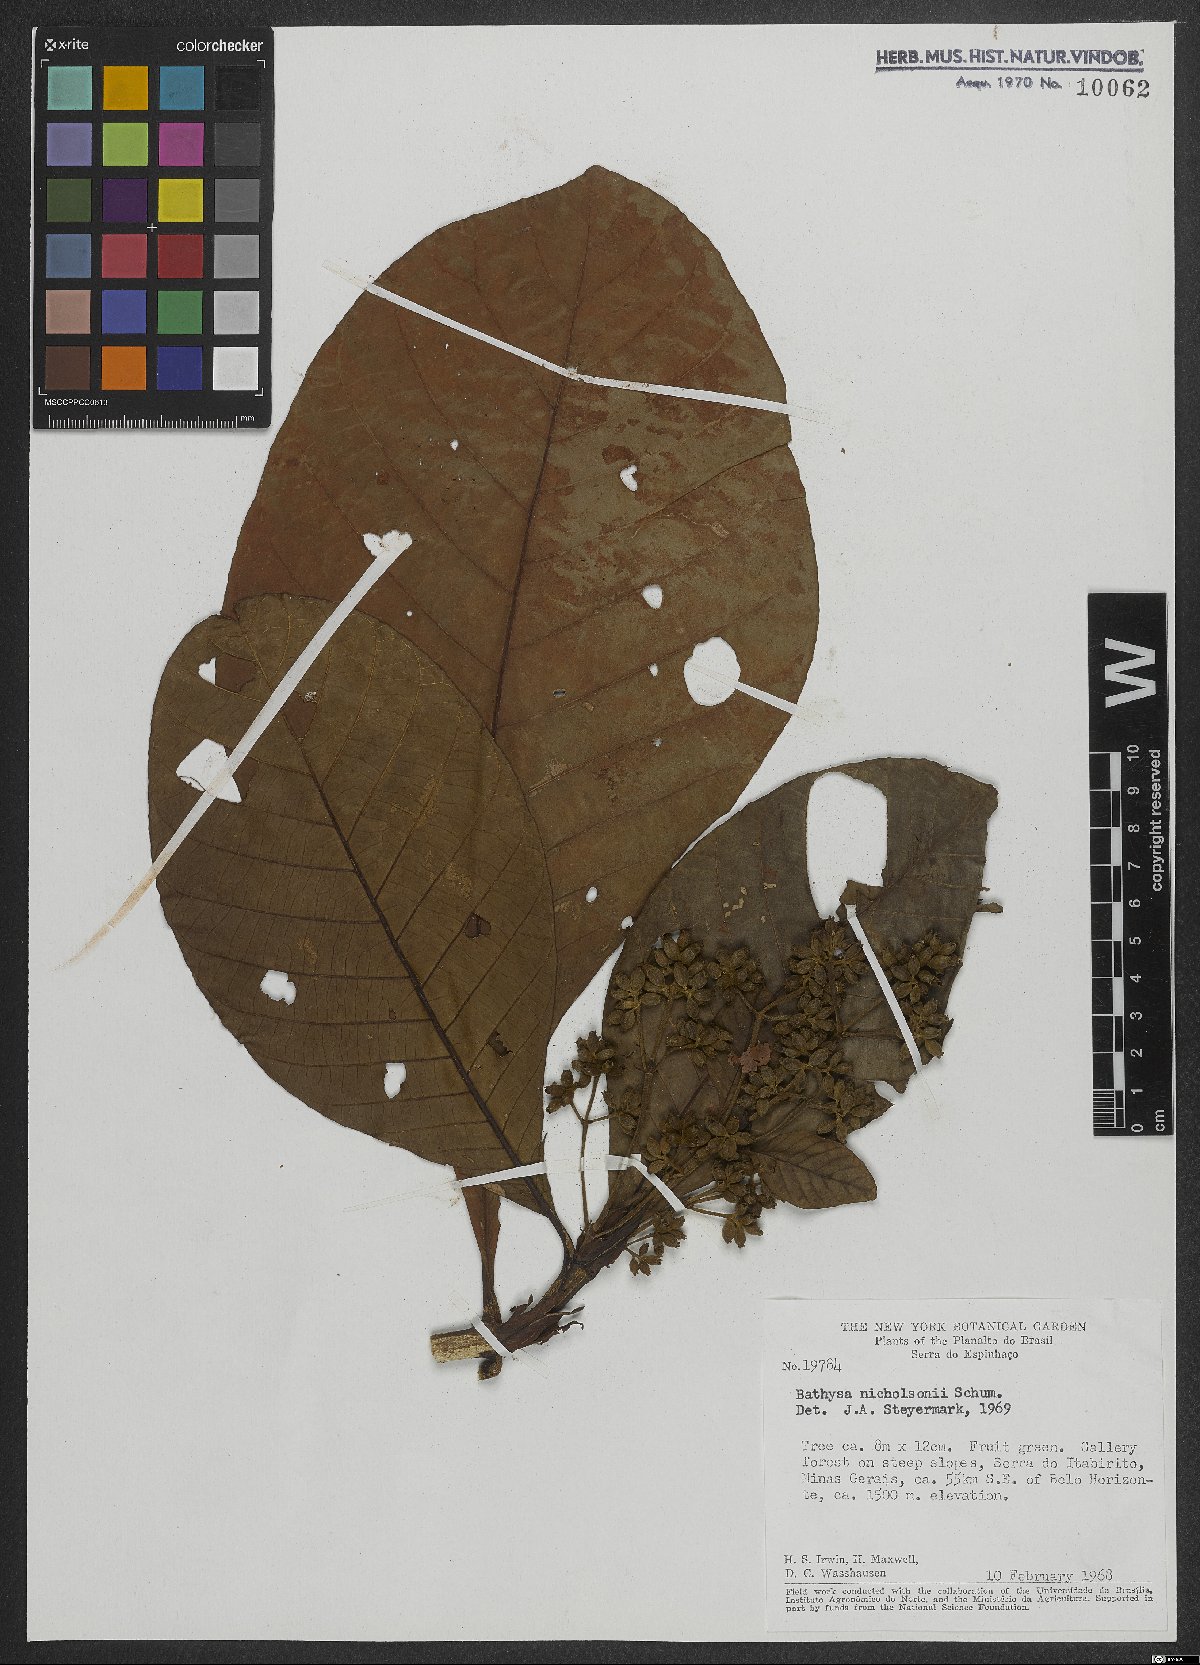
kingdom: Plantae
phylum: Tracheophyta
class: Magnoliopsida
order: Gentianales
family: Rubiaceae
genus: Bathysa
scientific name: Bathysa nicholsonii
